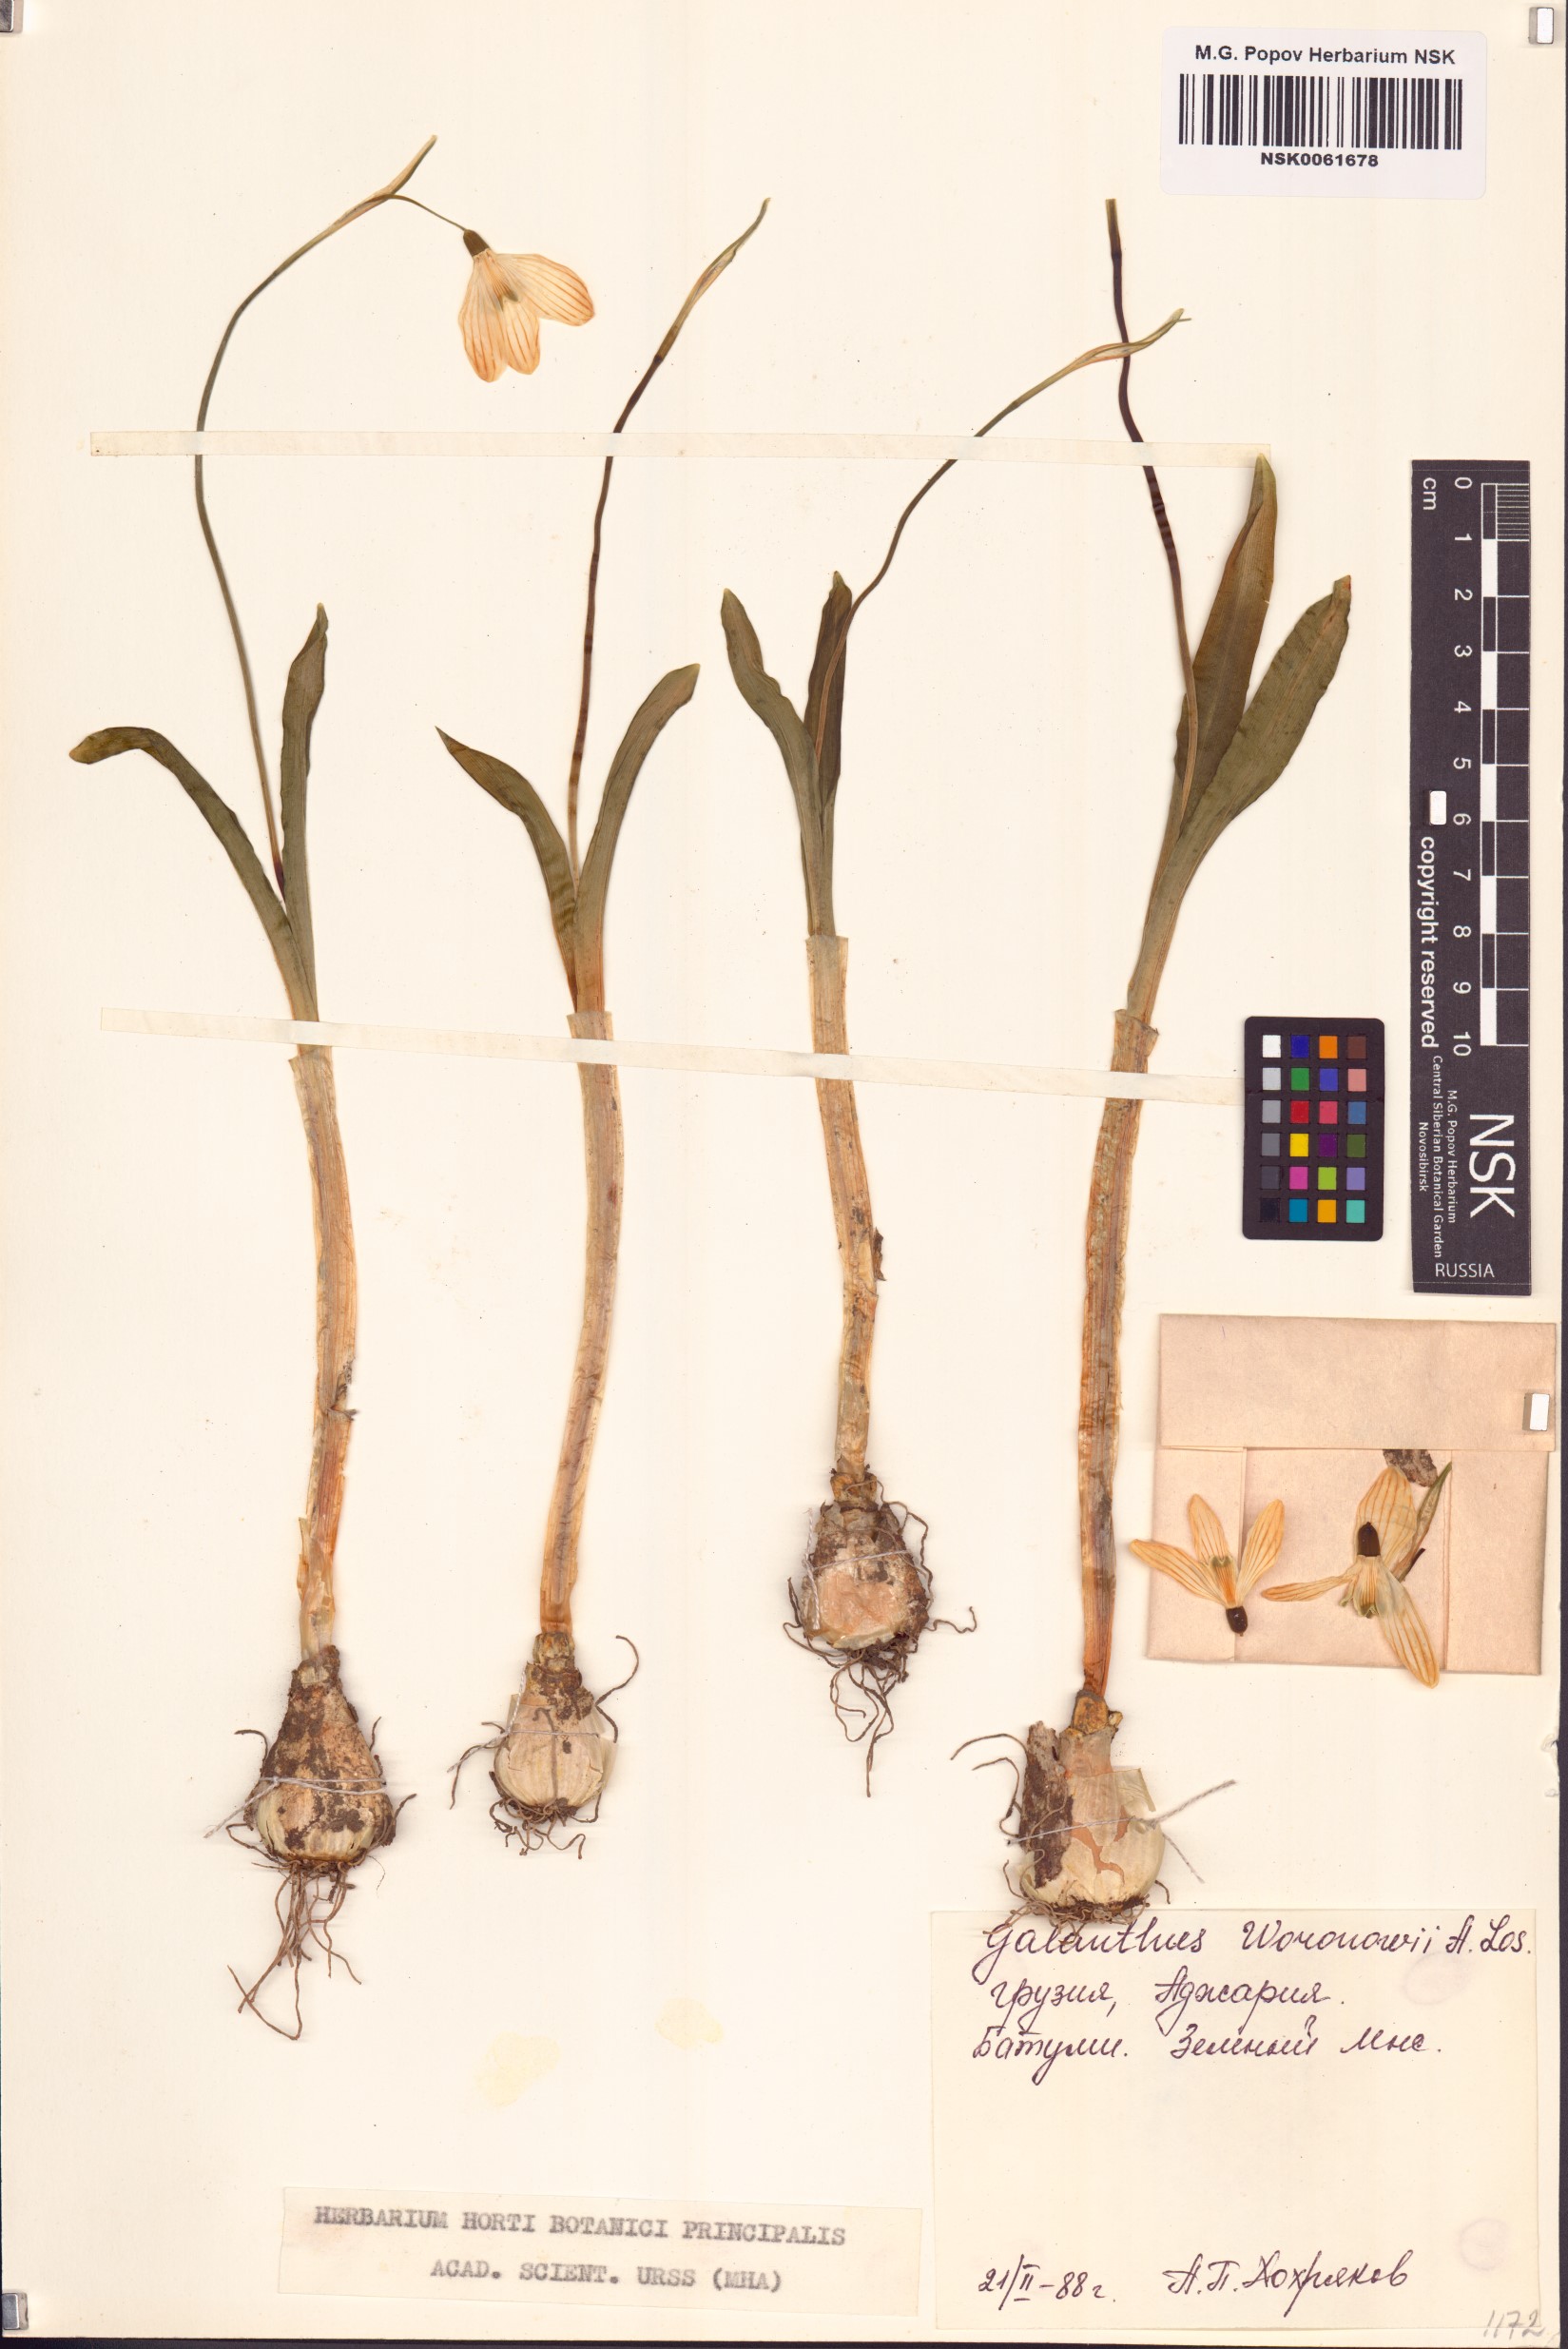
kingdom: Plantae
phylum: Tracheophyta
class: Liliopsida
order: Asparagales
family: Amaryllidaceae
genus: Galanthus
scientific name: Galanthus woronowii
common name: Green snowdrop
